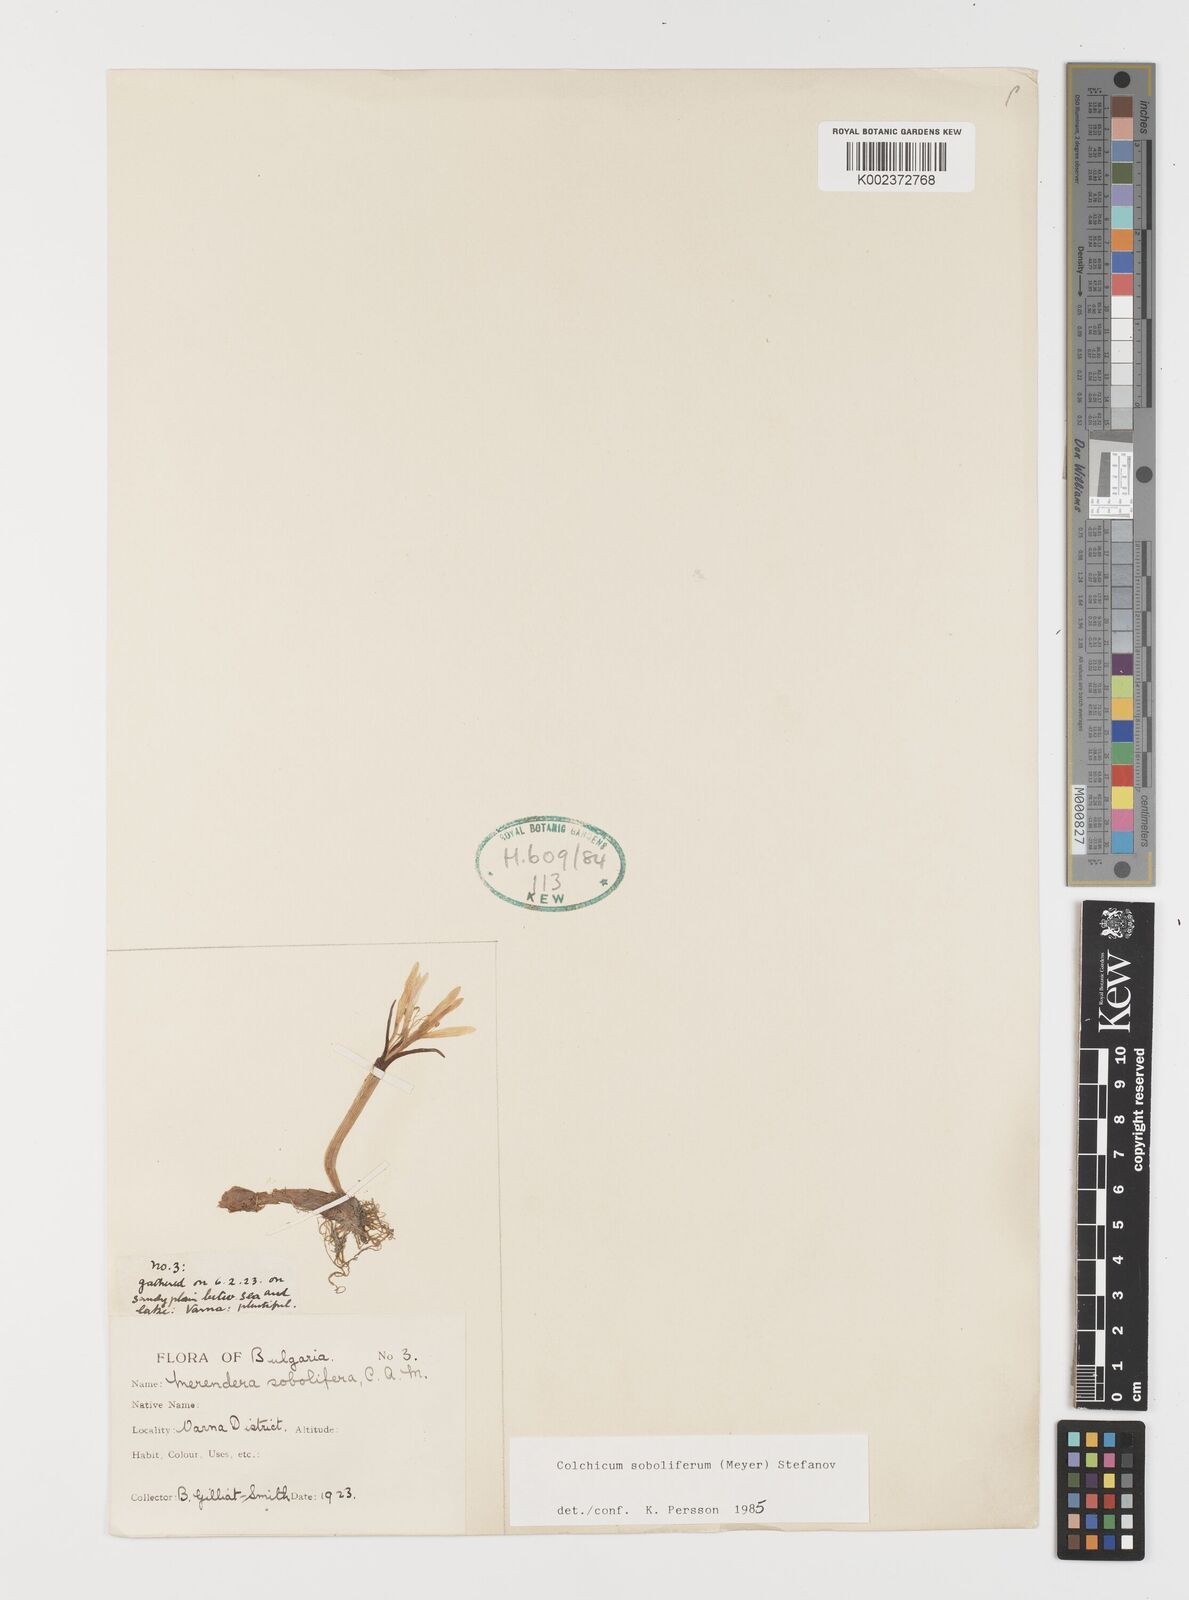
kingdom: Plantae
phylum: Tracheophyta
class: Liliopsida
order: Liliales
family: Colchicaceae
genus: Colchicum
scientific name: Colchicum soboliferum
